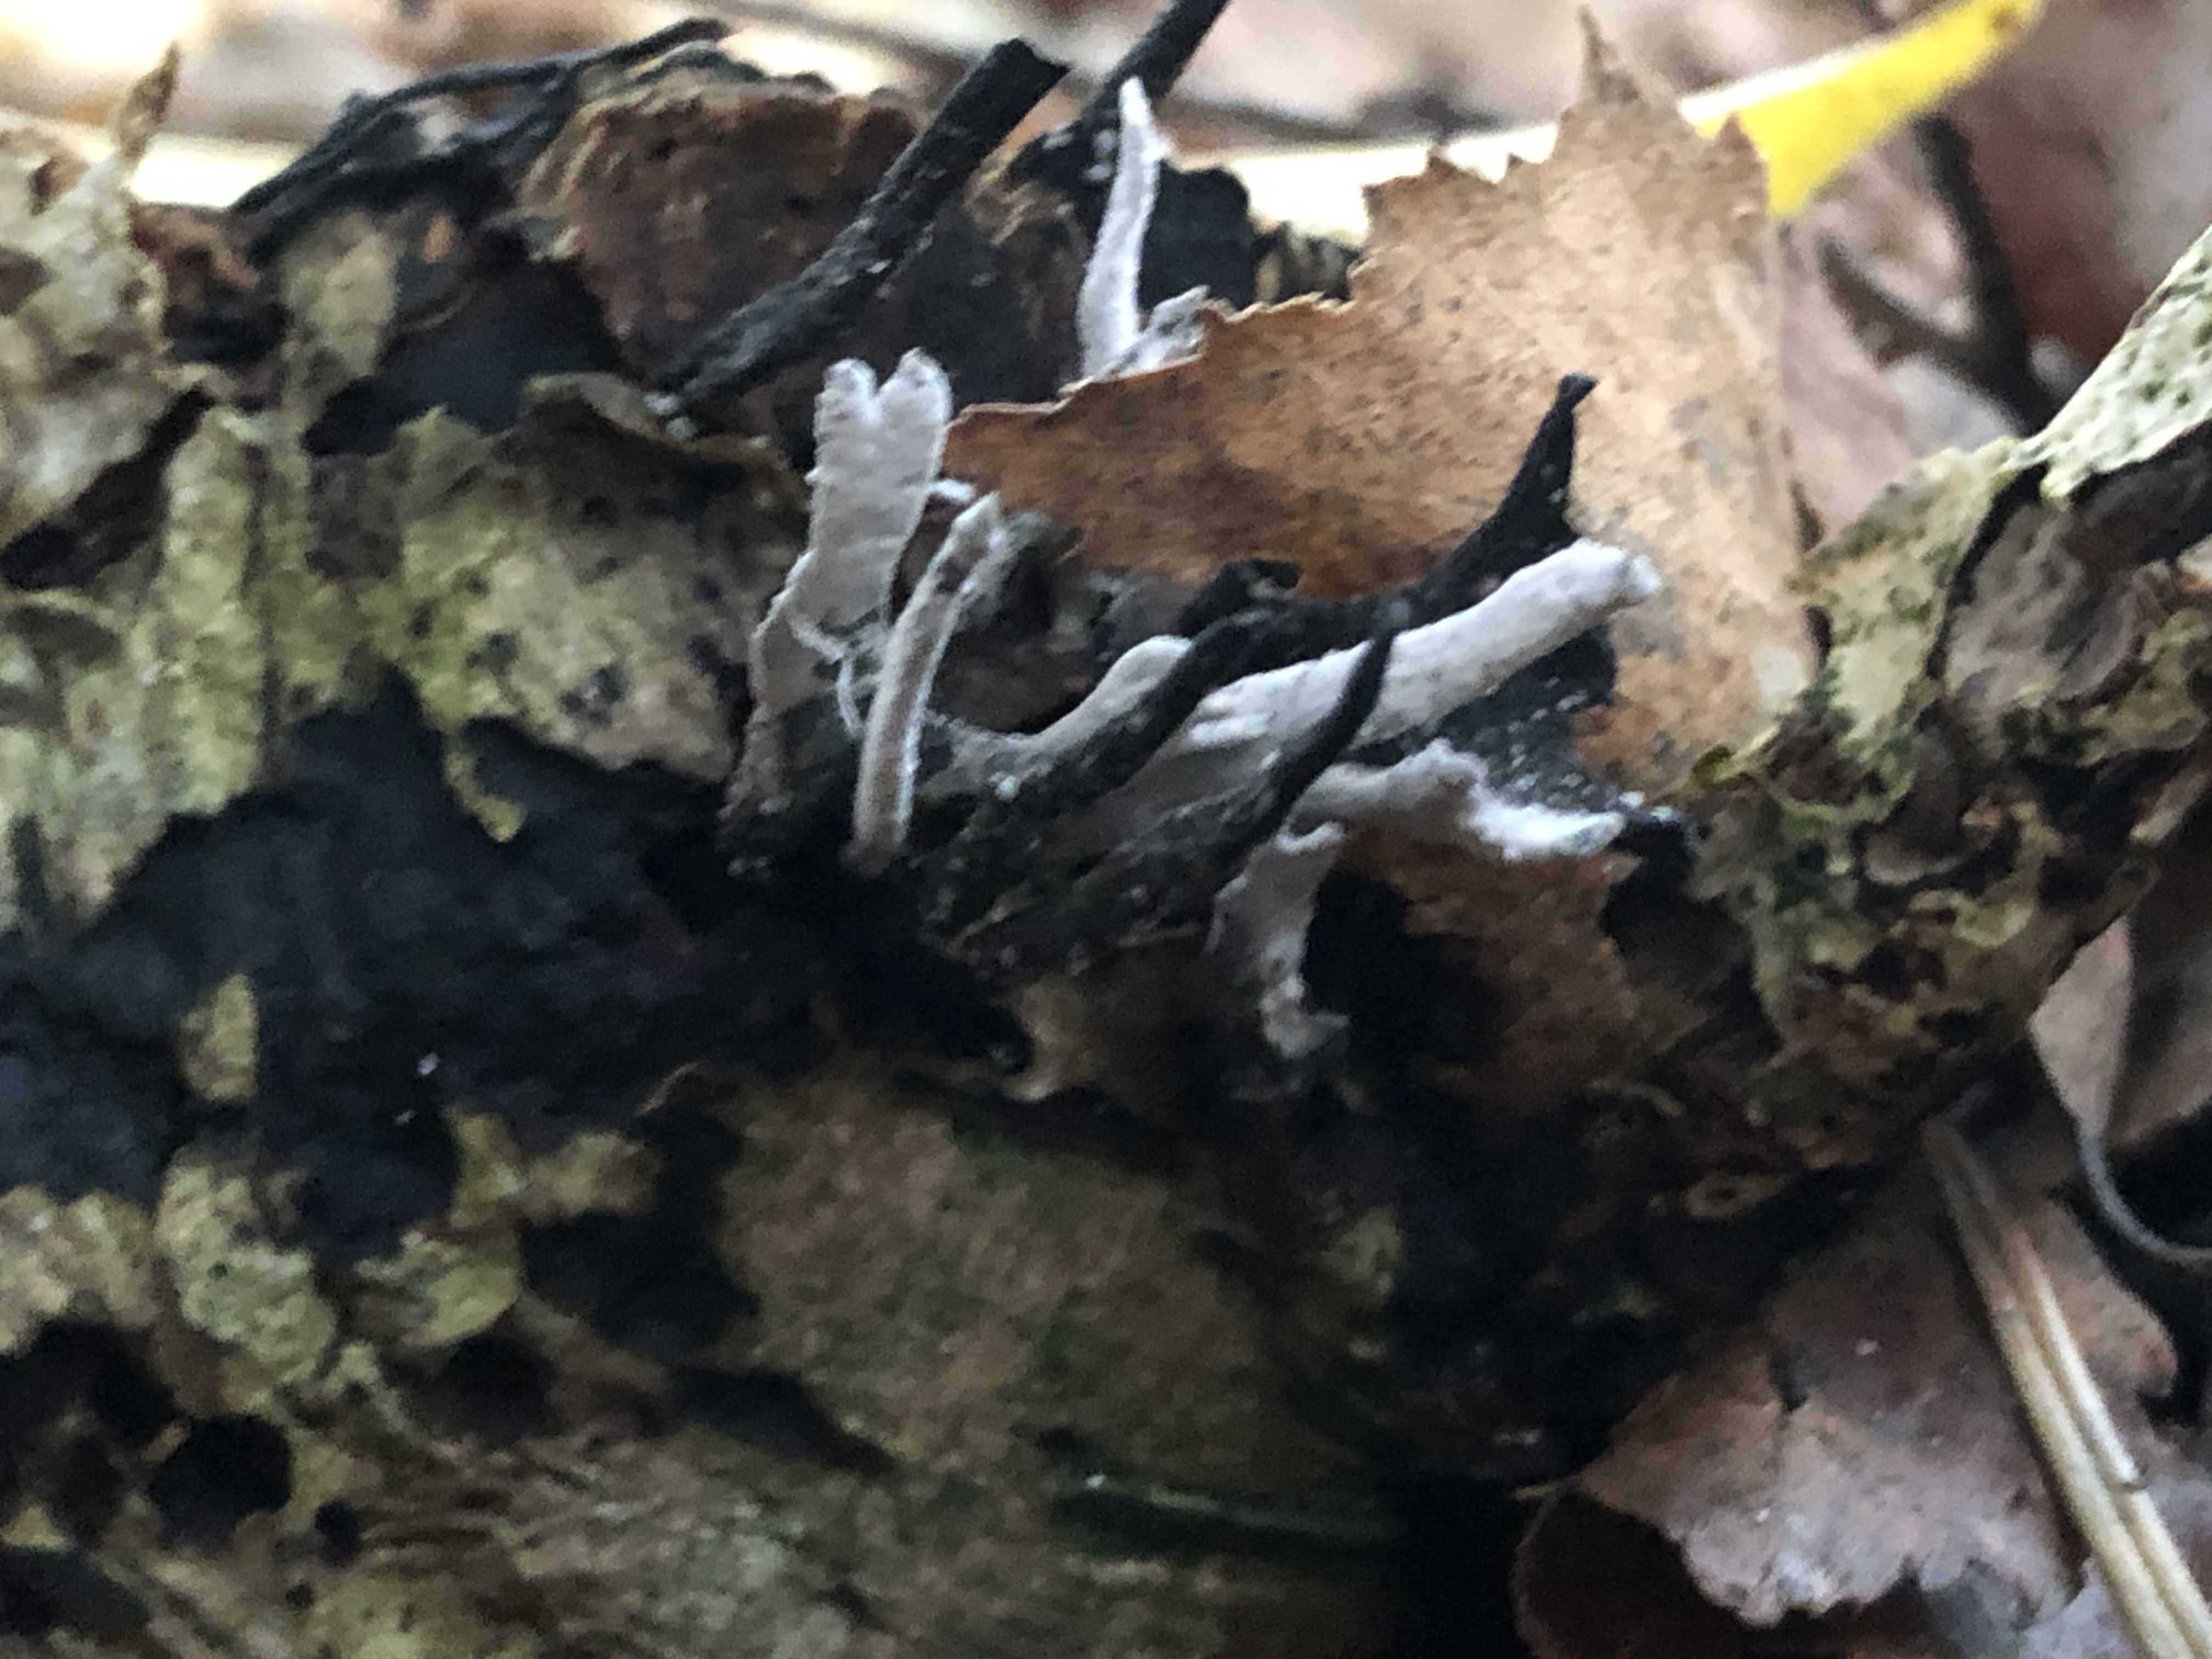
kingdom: Fungi
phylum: Ascomycota
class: Sordariomycetes
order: Xylariales
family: Xylariaceae
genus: Xylaria
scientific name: Xylaria hypoxylon
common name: grenet stødsvamp
